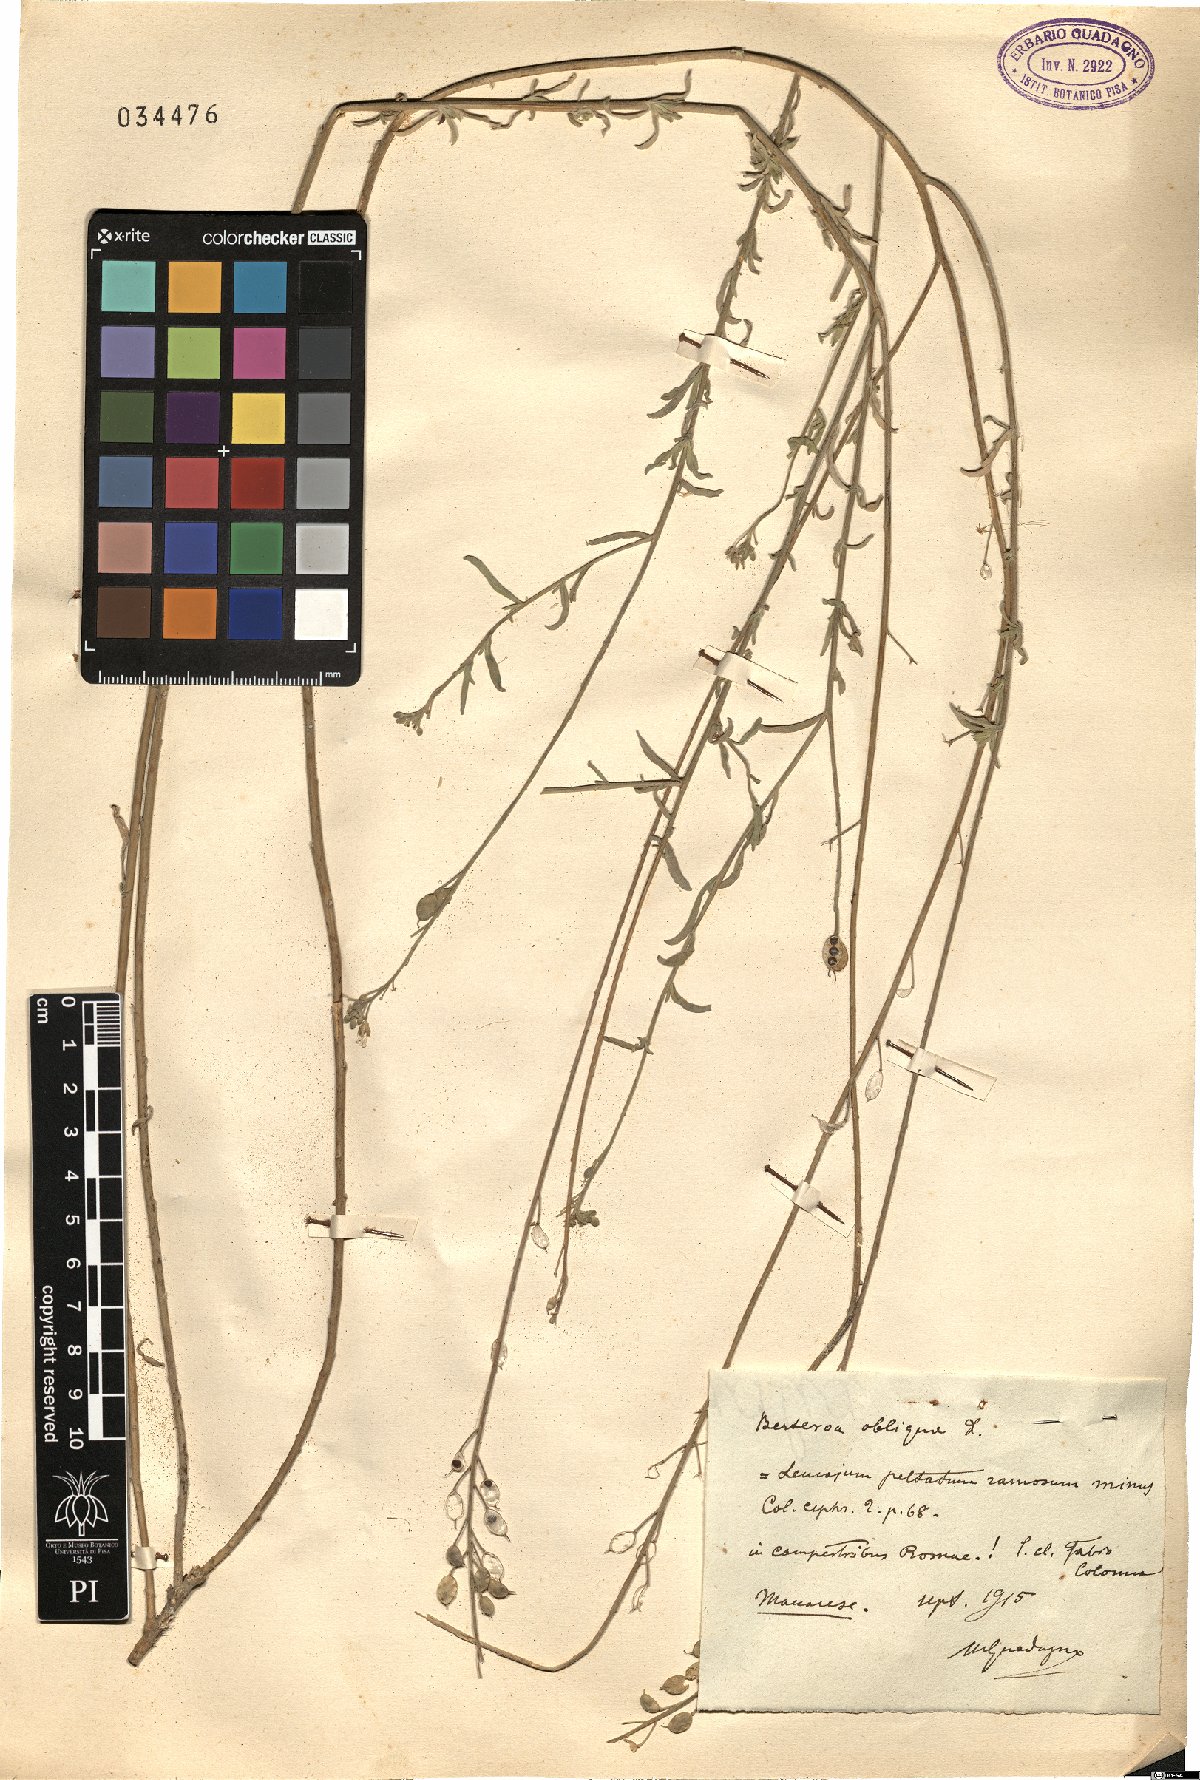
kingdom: Plantae
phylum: Tracheophyta
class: Magnoliopsida
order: Brassicales
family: Brassicaceae
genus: Berteroa
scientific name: Berteroa obliqua
